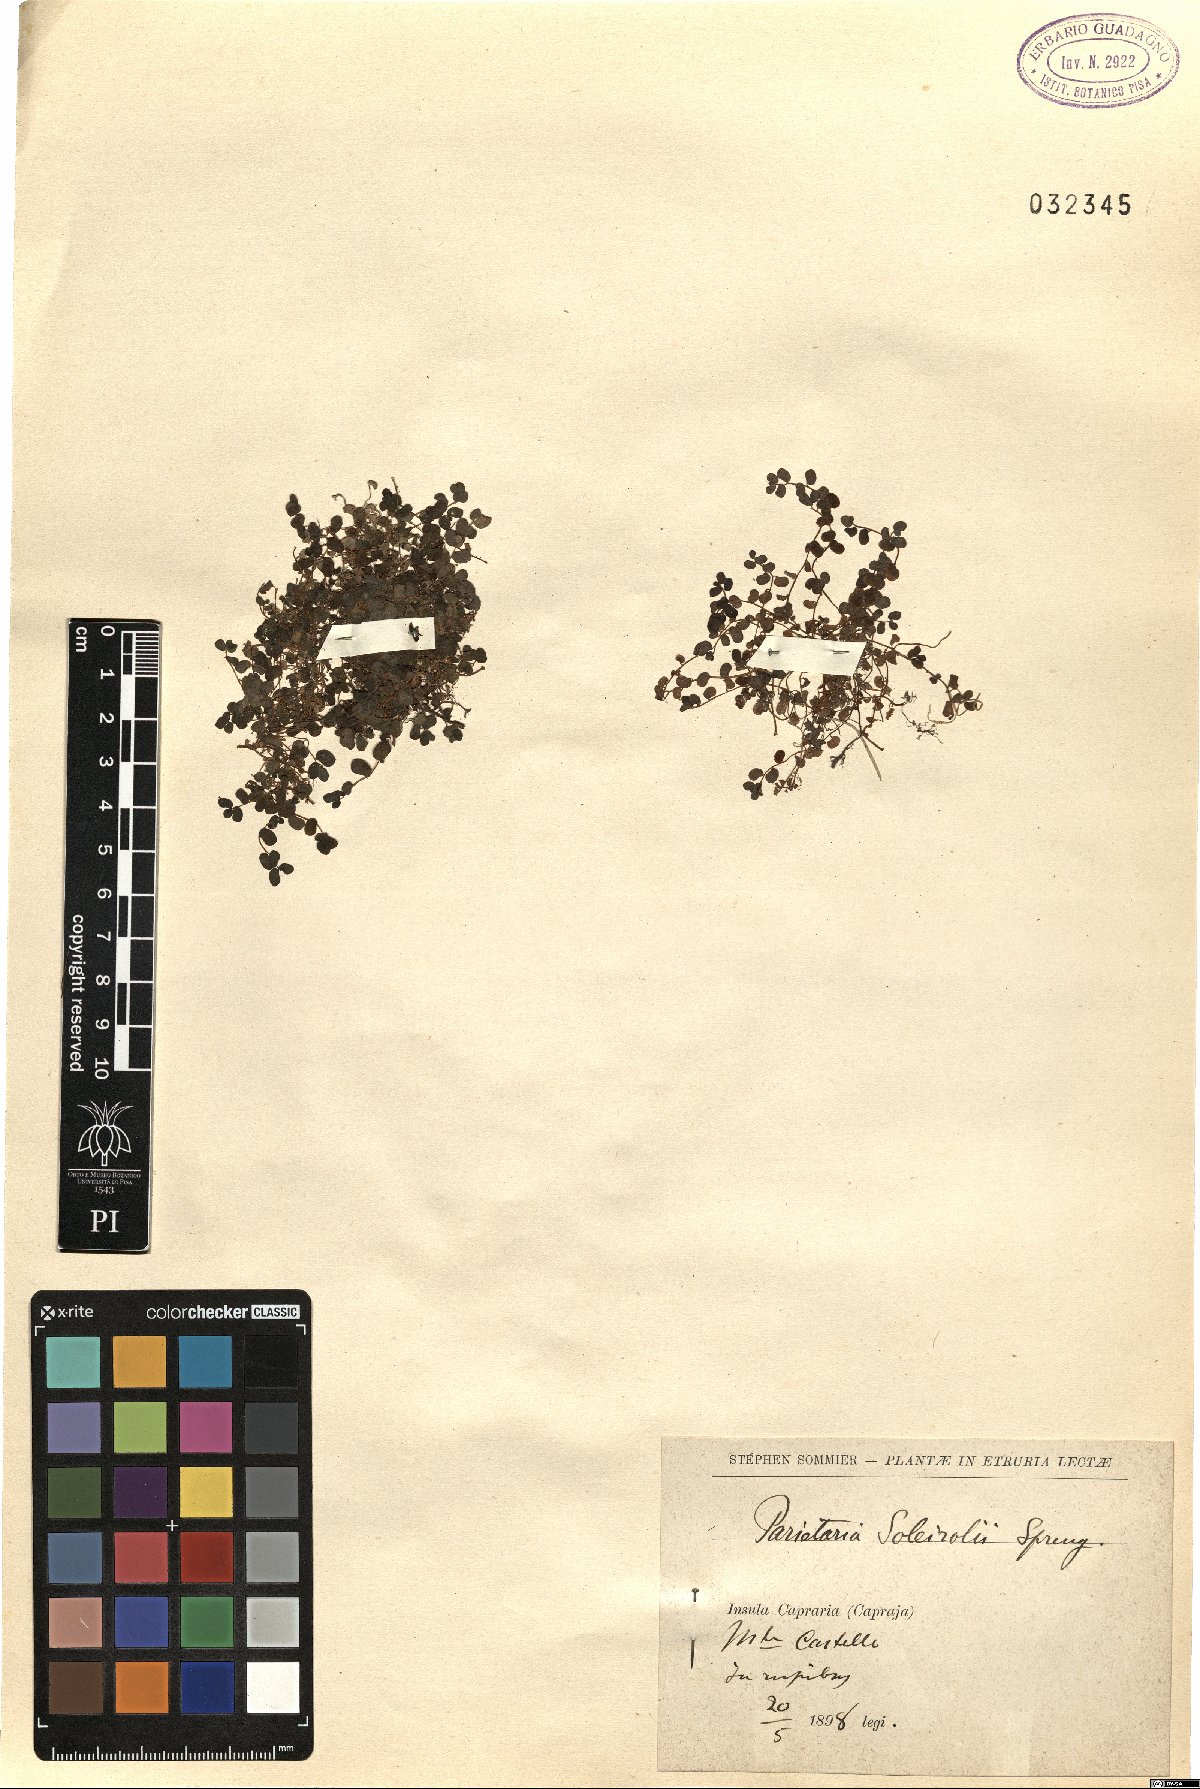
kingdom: Plantae
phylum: Tracheophyta
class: Magnoliopsida
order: Rosales
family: Urticaceae
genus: Soleirolia
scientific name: Soleirolia soleirolii
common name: Mind-your-own-business
